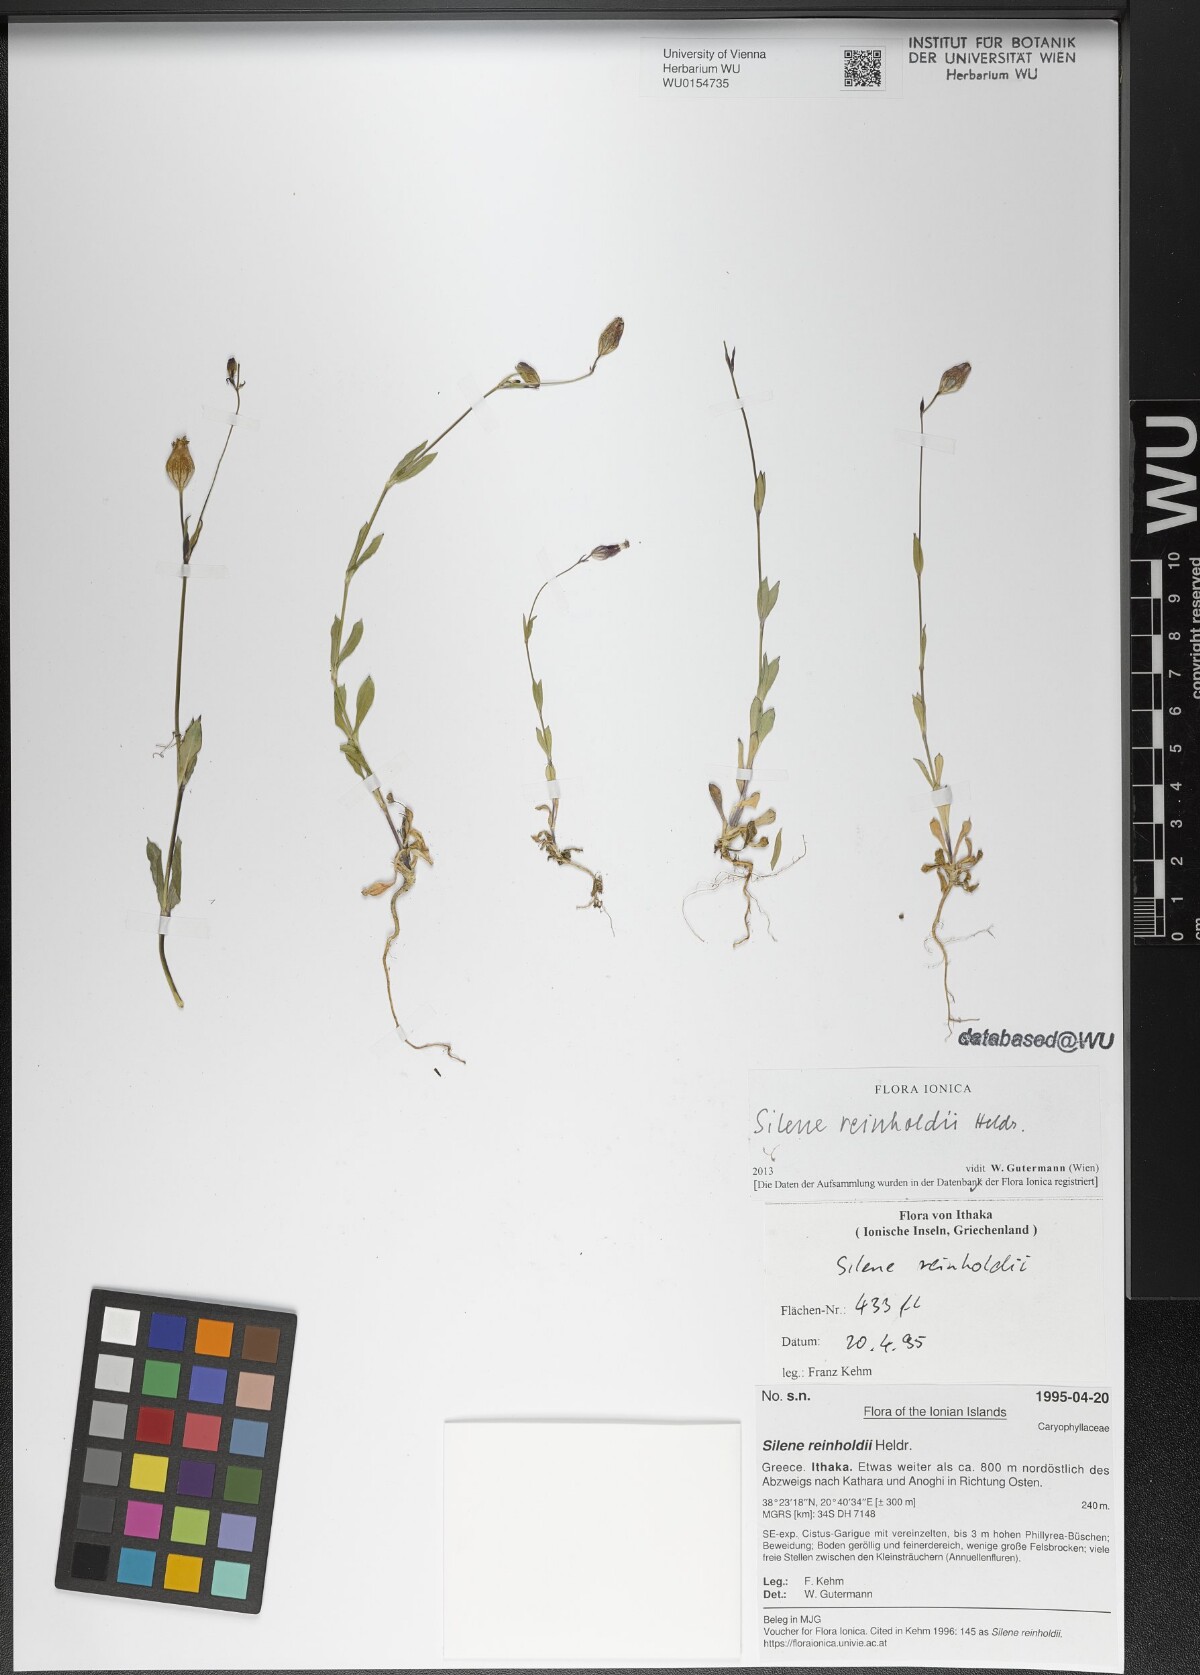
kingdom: Plantae
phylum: Tracheophyta
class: Magnoliopsida
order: Caryophyllales
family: Caryophyllaceae
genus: Silene
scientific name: Silene reinholdii
